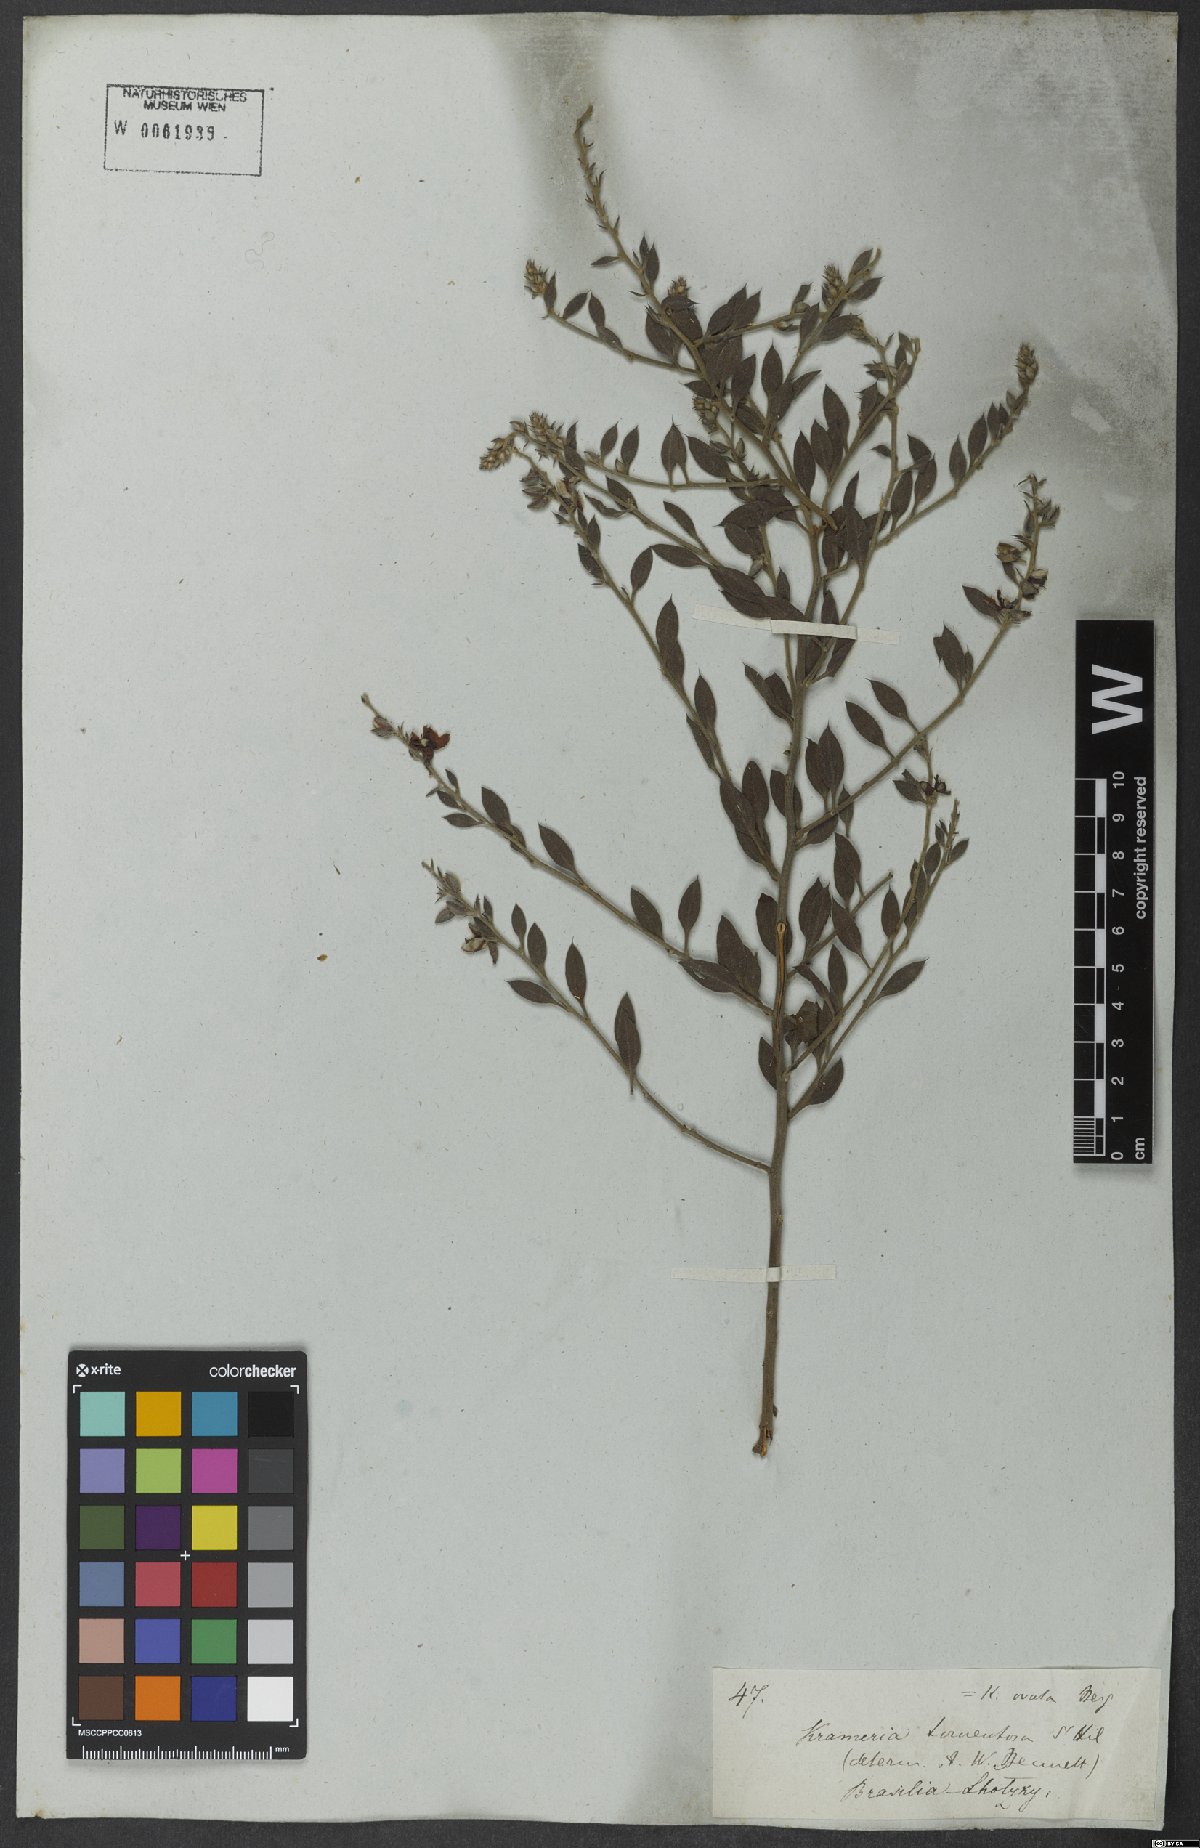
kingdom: Plantae
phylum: Tracheophyta
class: Magnoliopsida
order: Zygophyllales
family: Krameriaceae
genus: Krameria
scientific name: Krameria tomentosa
